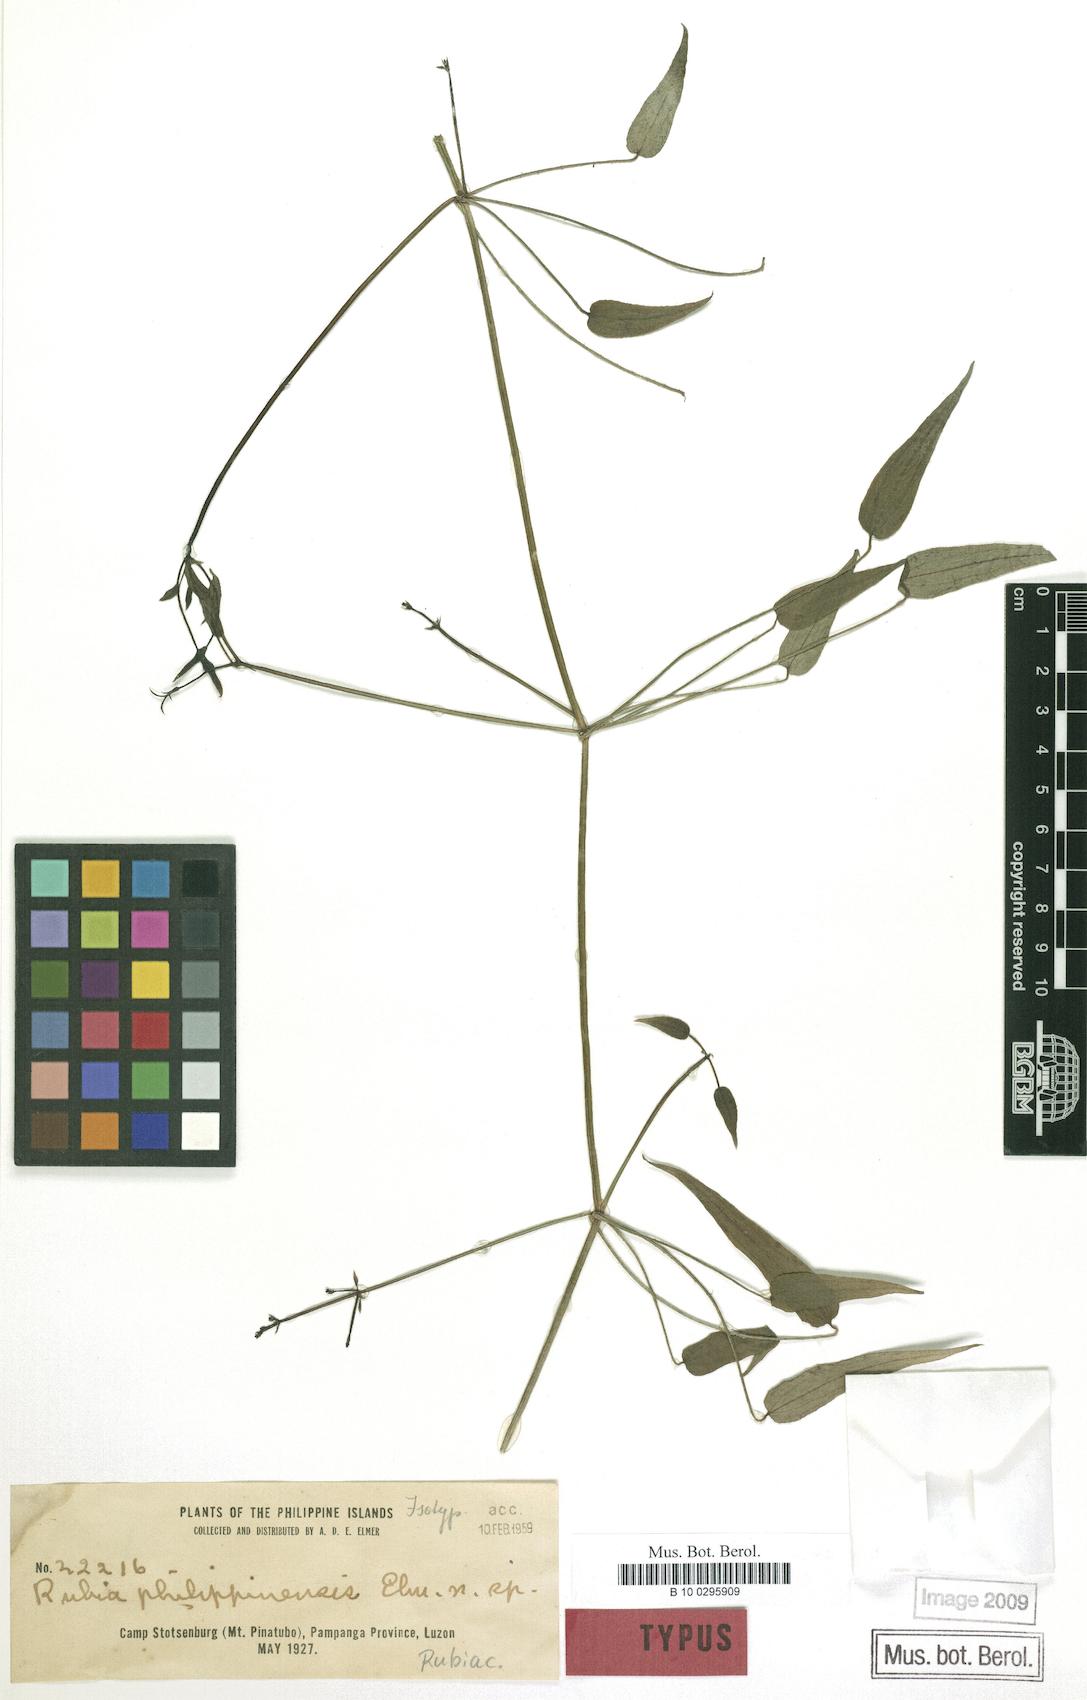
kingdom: Plantae
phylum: Tracheophyta
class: Magnoliopsida
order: Gentianales
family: Rubiaceae
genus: Rubia
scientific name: Rubia philippinensis
